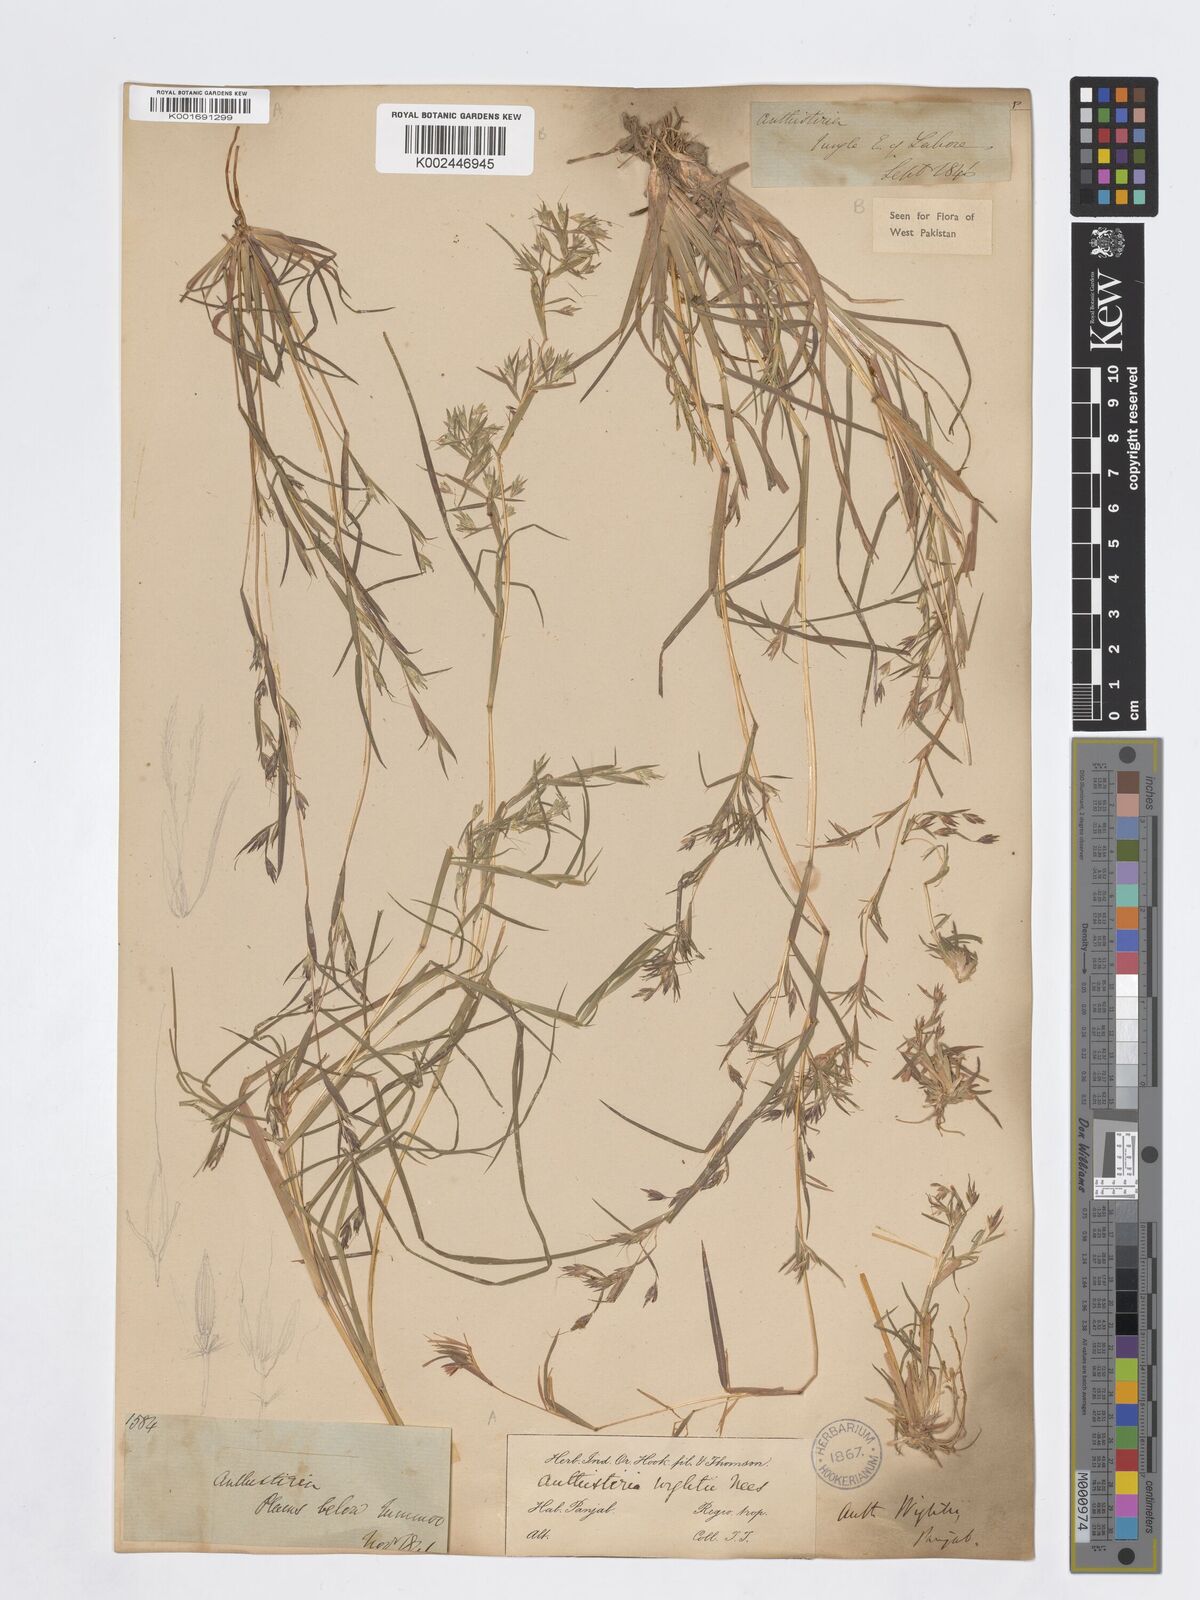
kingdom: Plantae
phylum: Tracheophyta
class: Liliopsida
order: Poales
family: Poaceae
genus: Themeda
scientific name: Themeda
